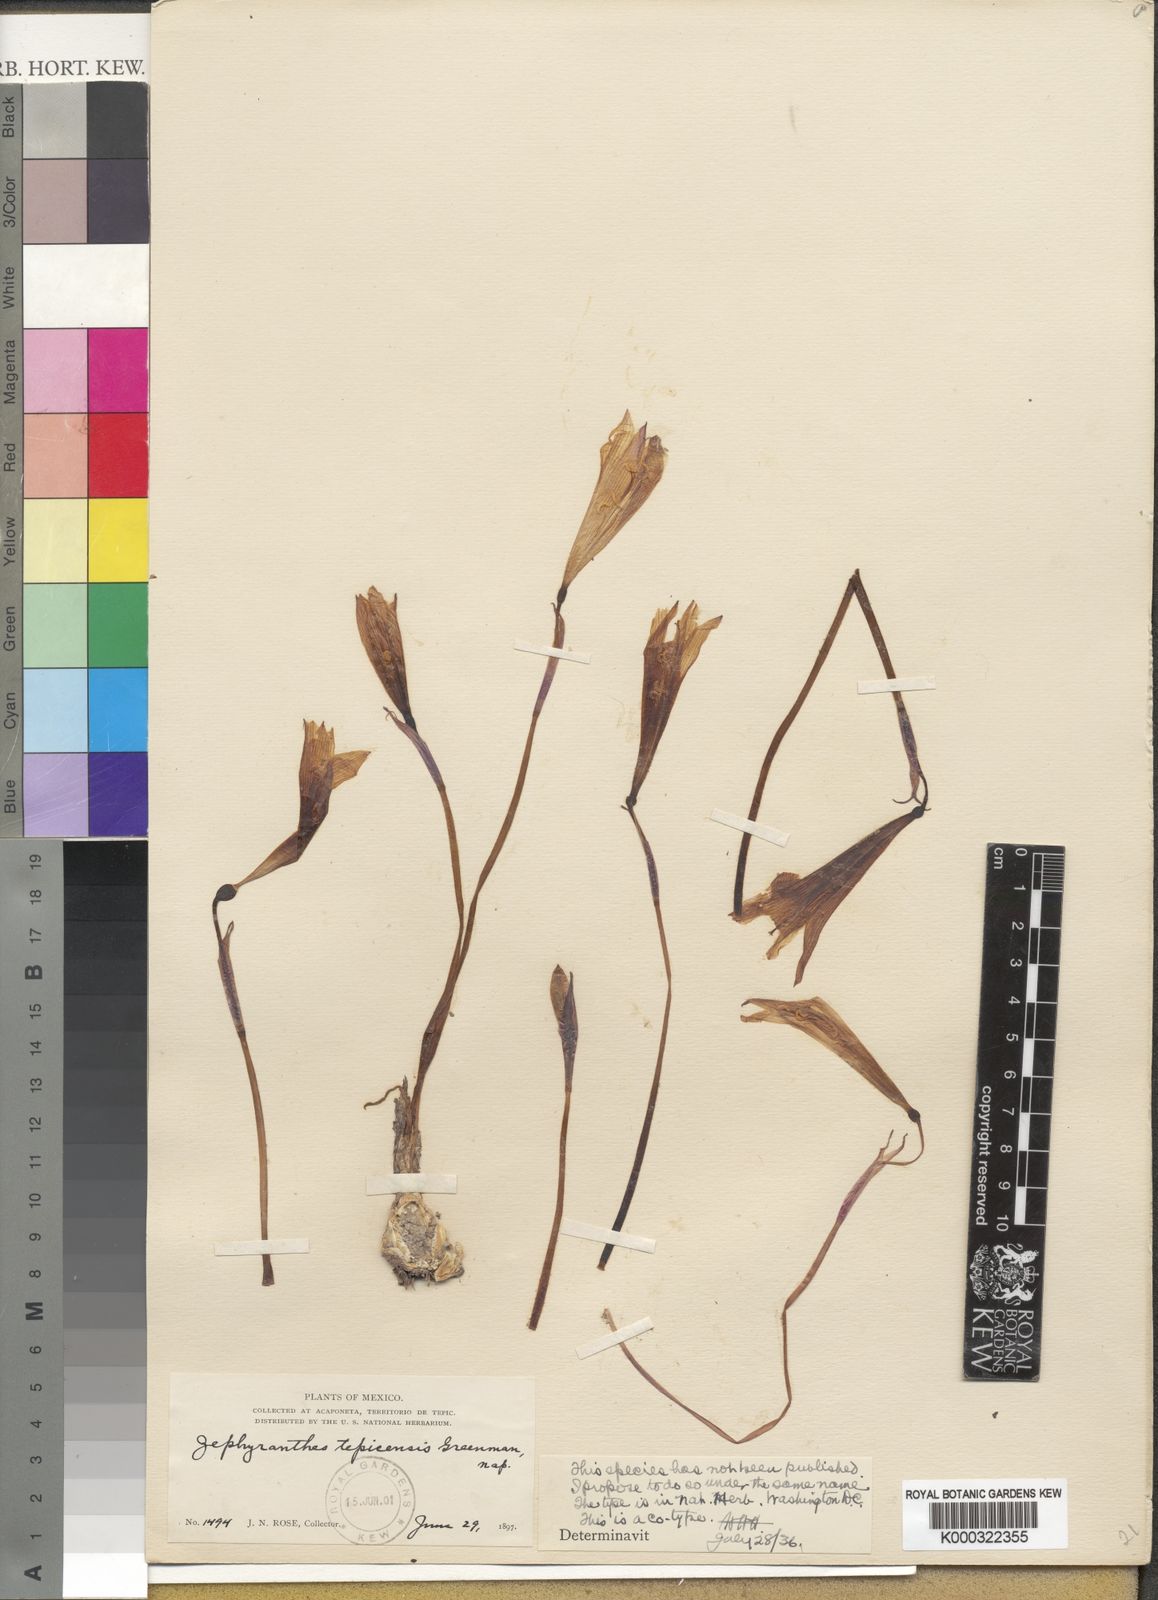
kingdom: Plantae
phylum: Tracheophyta
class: Liliopsida
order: Asparagales
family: Amaryllidaceae
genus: Zephyranthes
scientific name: Zephyranthes
